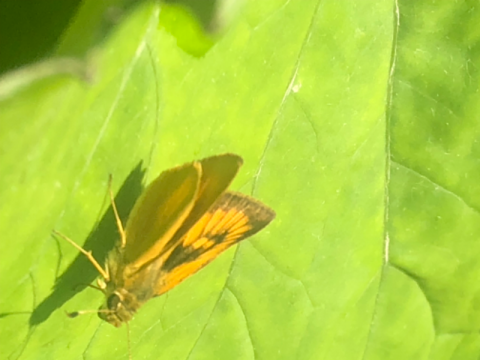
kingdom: Animalia
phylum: Arthropoda
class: Insecta
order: Lepidoptera
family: Hesperiidae
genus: Atrytone
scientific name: Atrytone delaware
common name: Delaware Skipper
